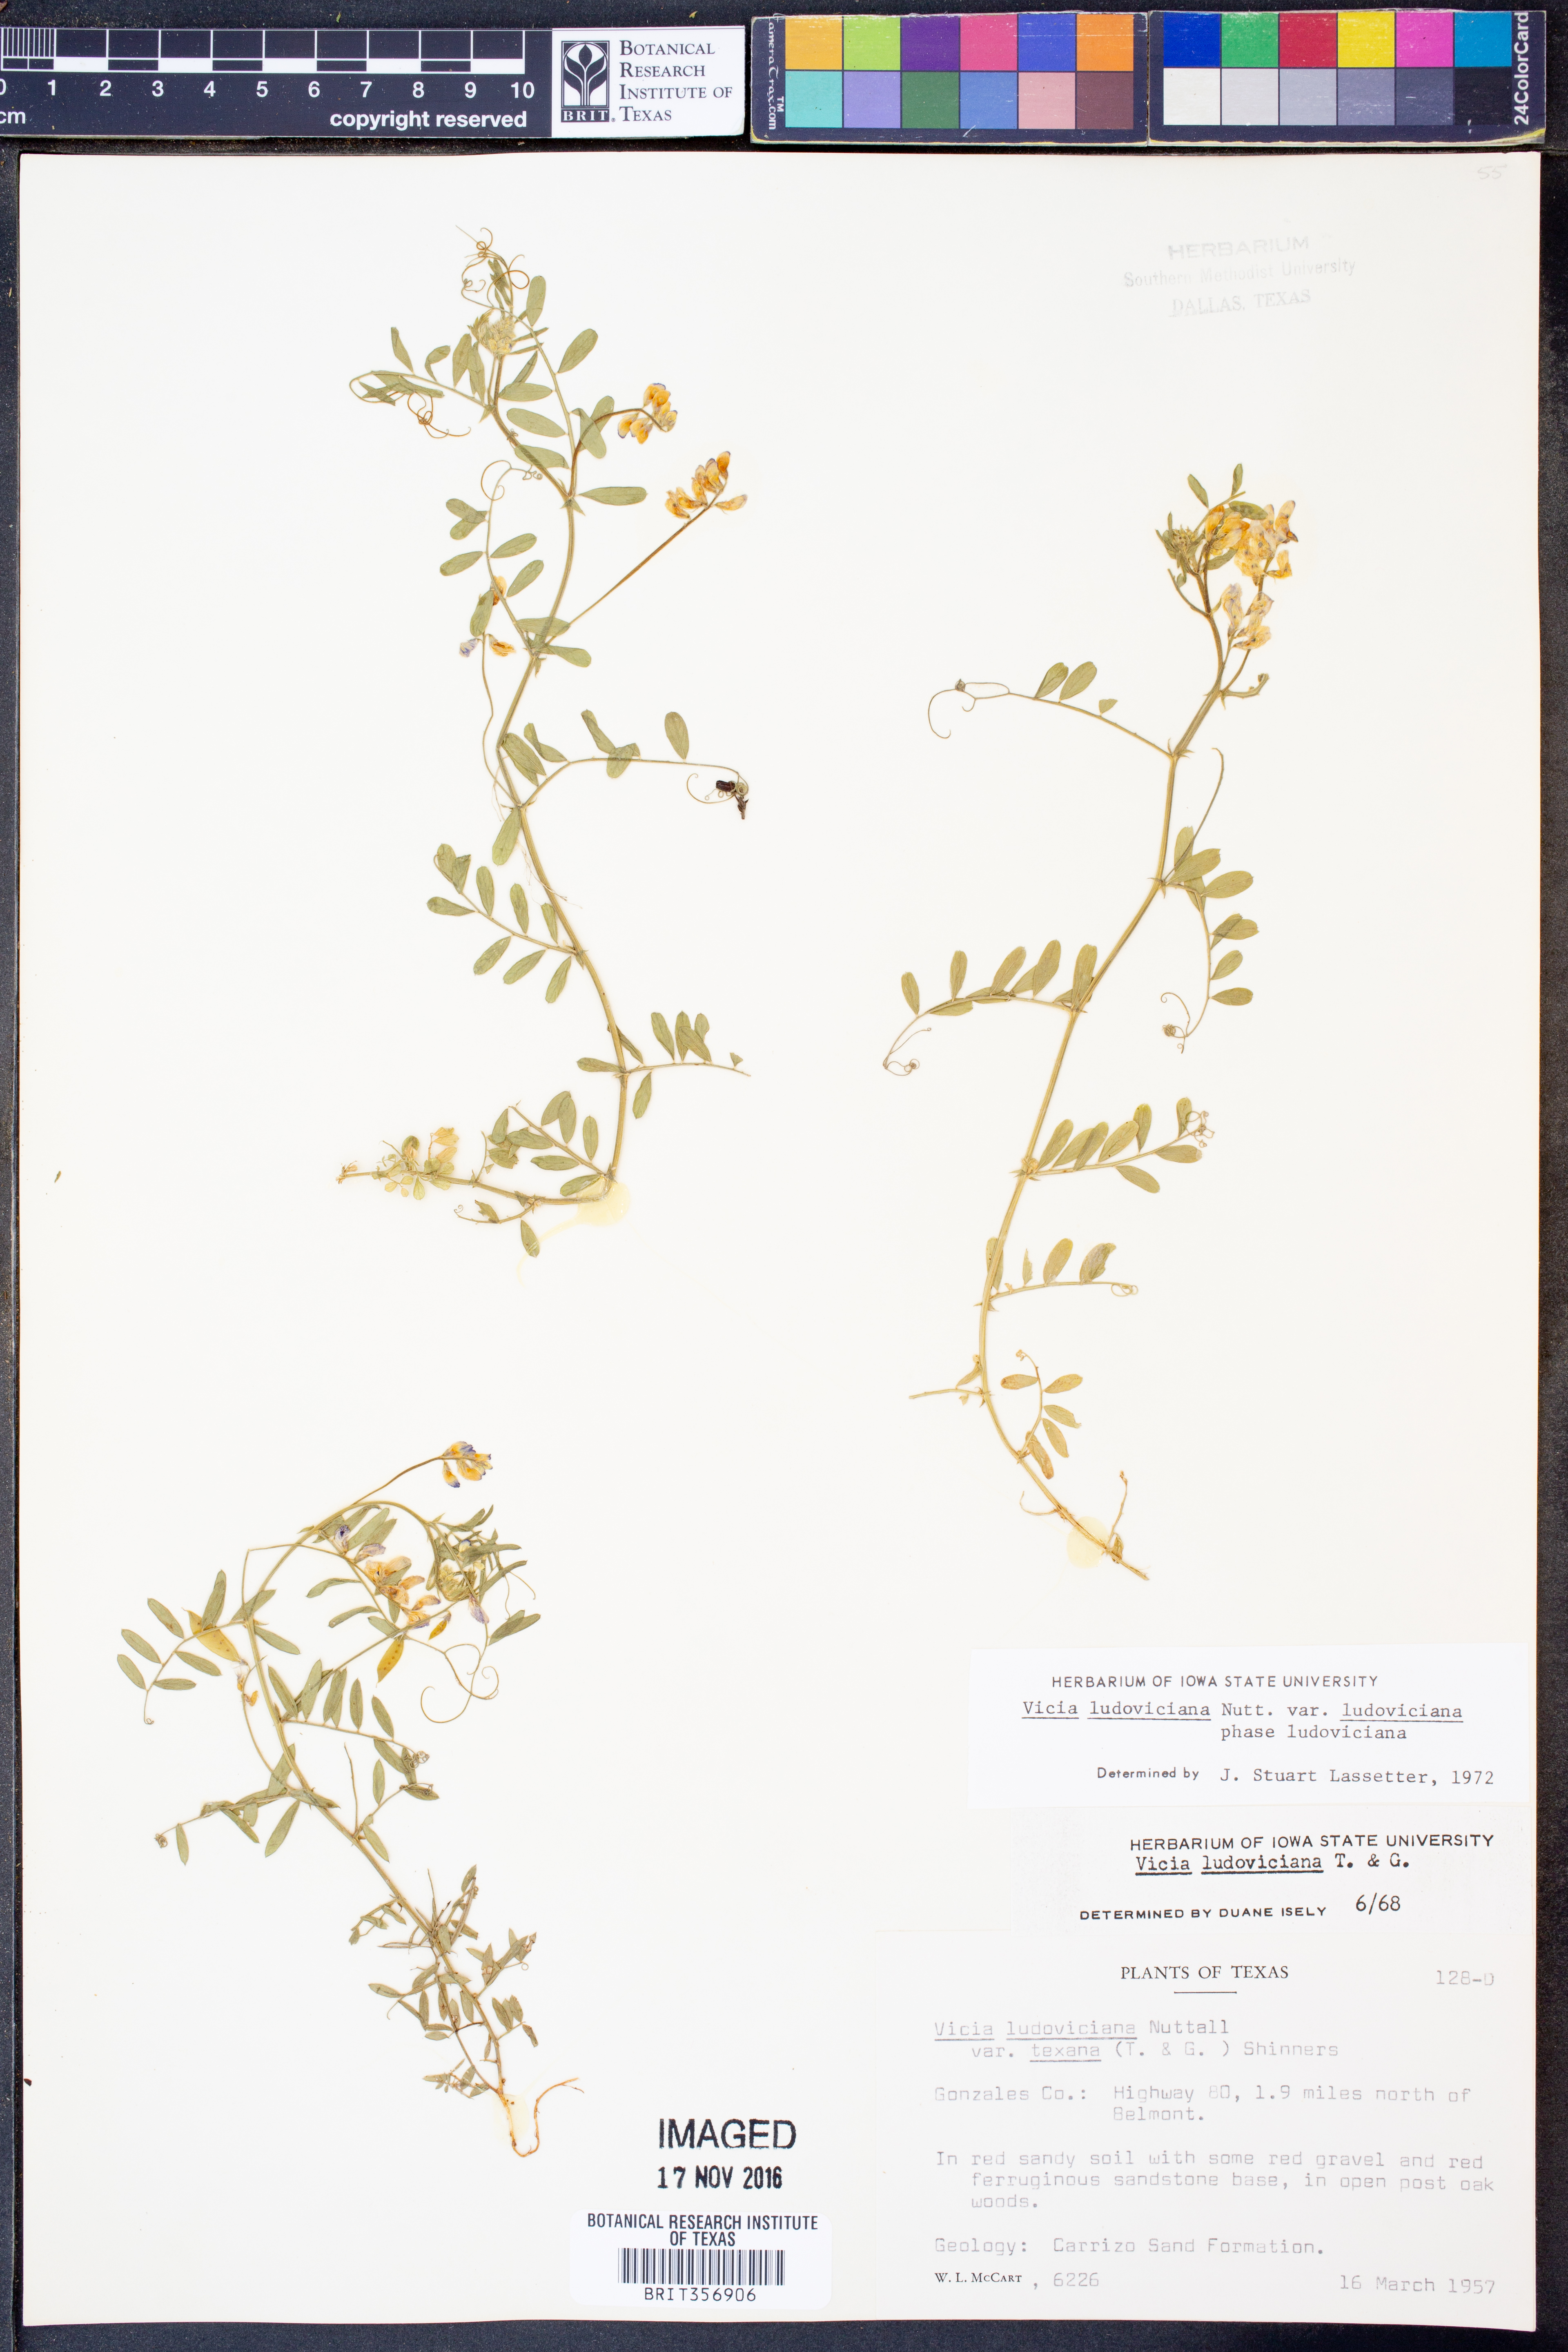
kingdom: Plantae
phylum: Tracheophyta
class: Magnoliopsida
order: Fabales
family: Fabaceae
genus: Vicia
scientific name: Vicia ludoviciana
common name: Louisiana vetch
